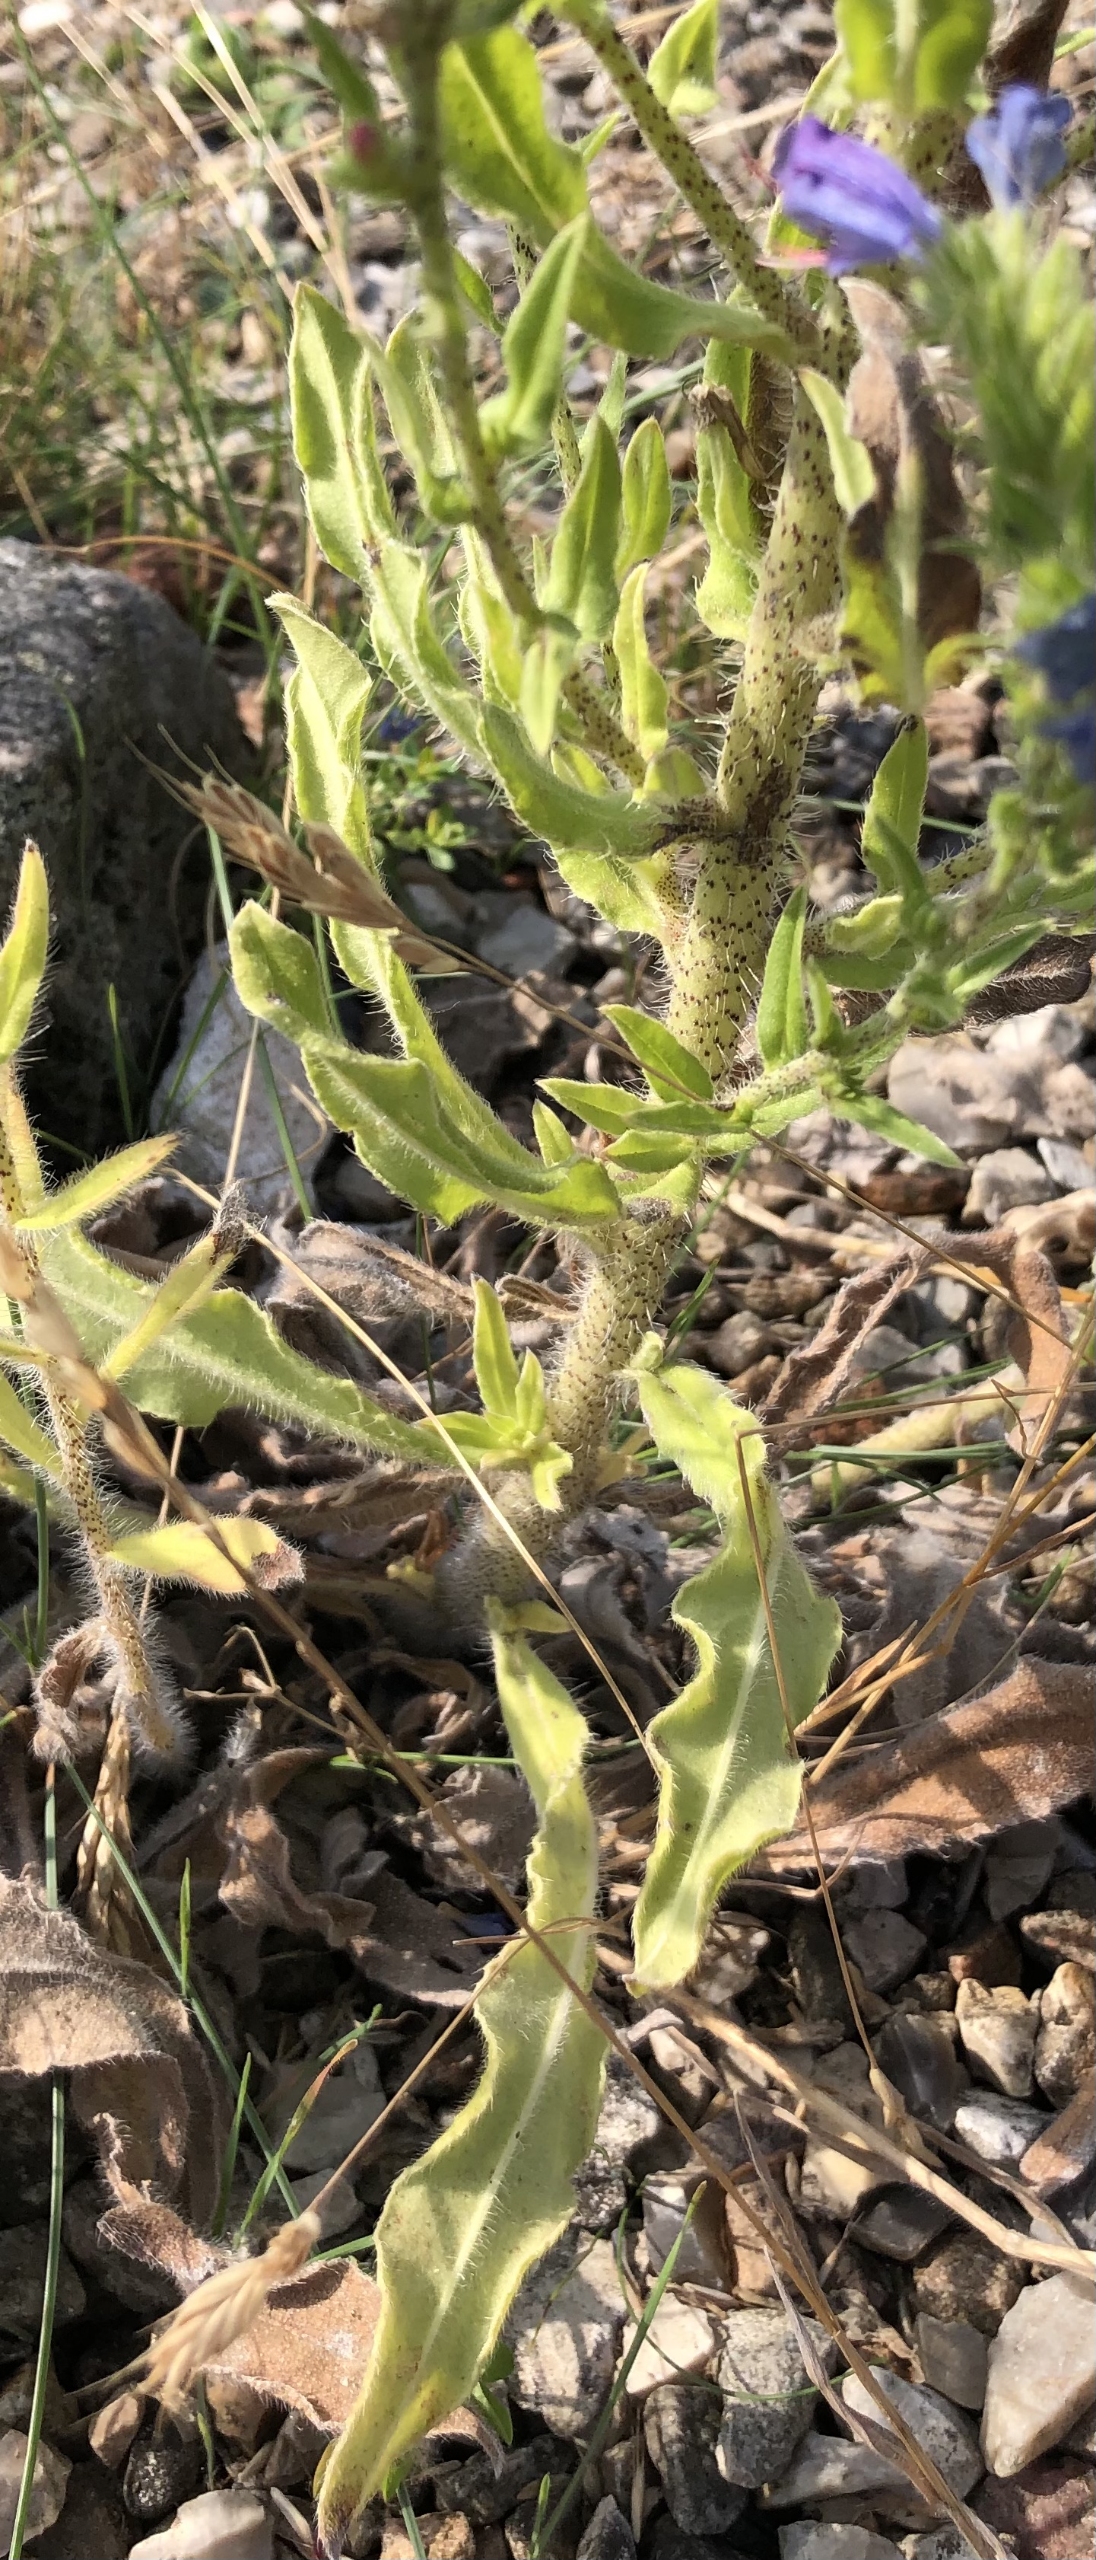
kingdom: Plantae
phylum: Tracheophyta
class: Magnoliopsida
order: Boraginales
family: Boraginaceae
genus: Echium
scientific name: Echium vulgare
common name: Slangehoved
